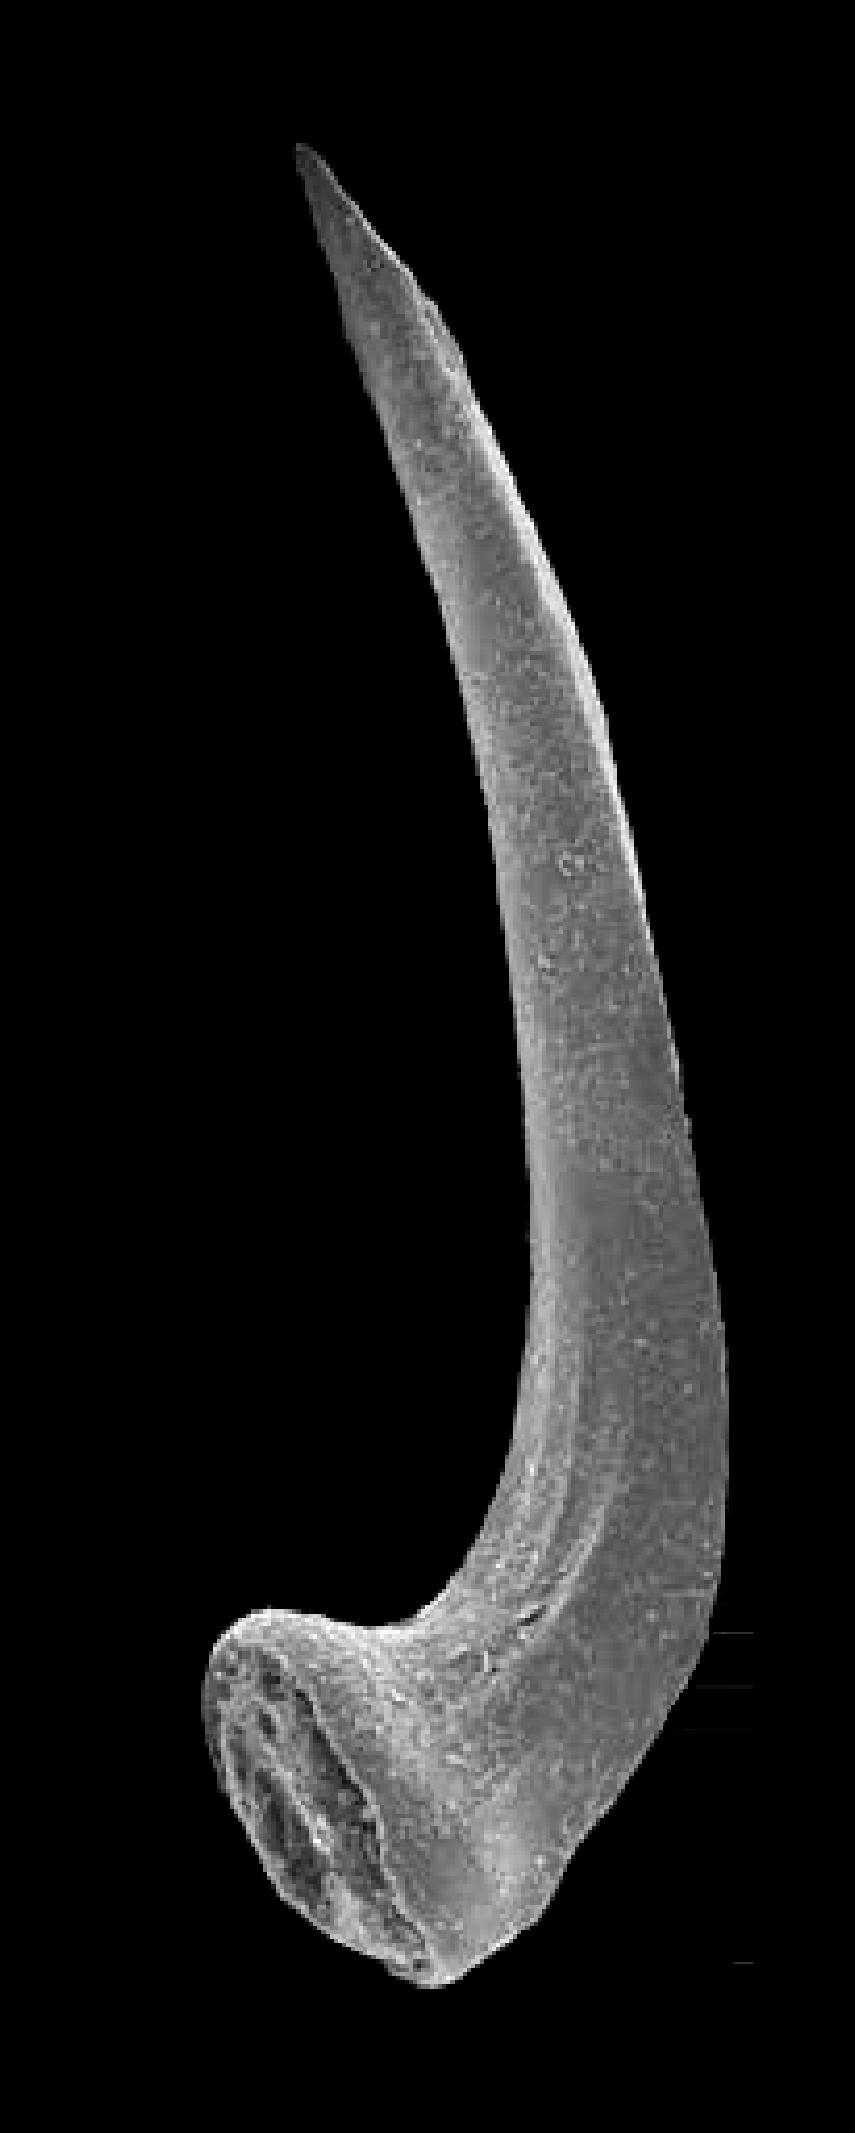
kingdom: Animalia
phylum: Chordata
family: Protopanderodontidae
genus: Scolopodus
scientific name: Scolopodus striatus
